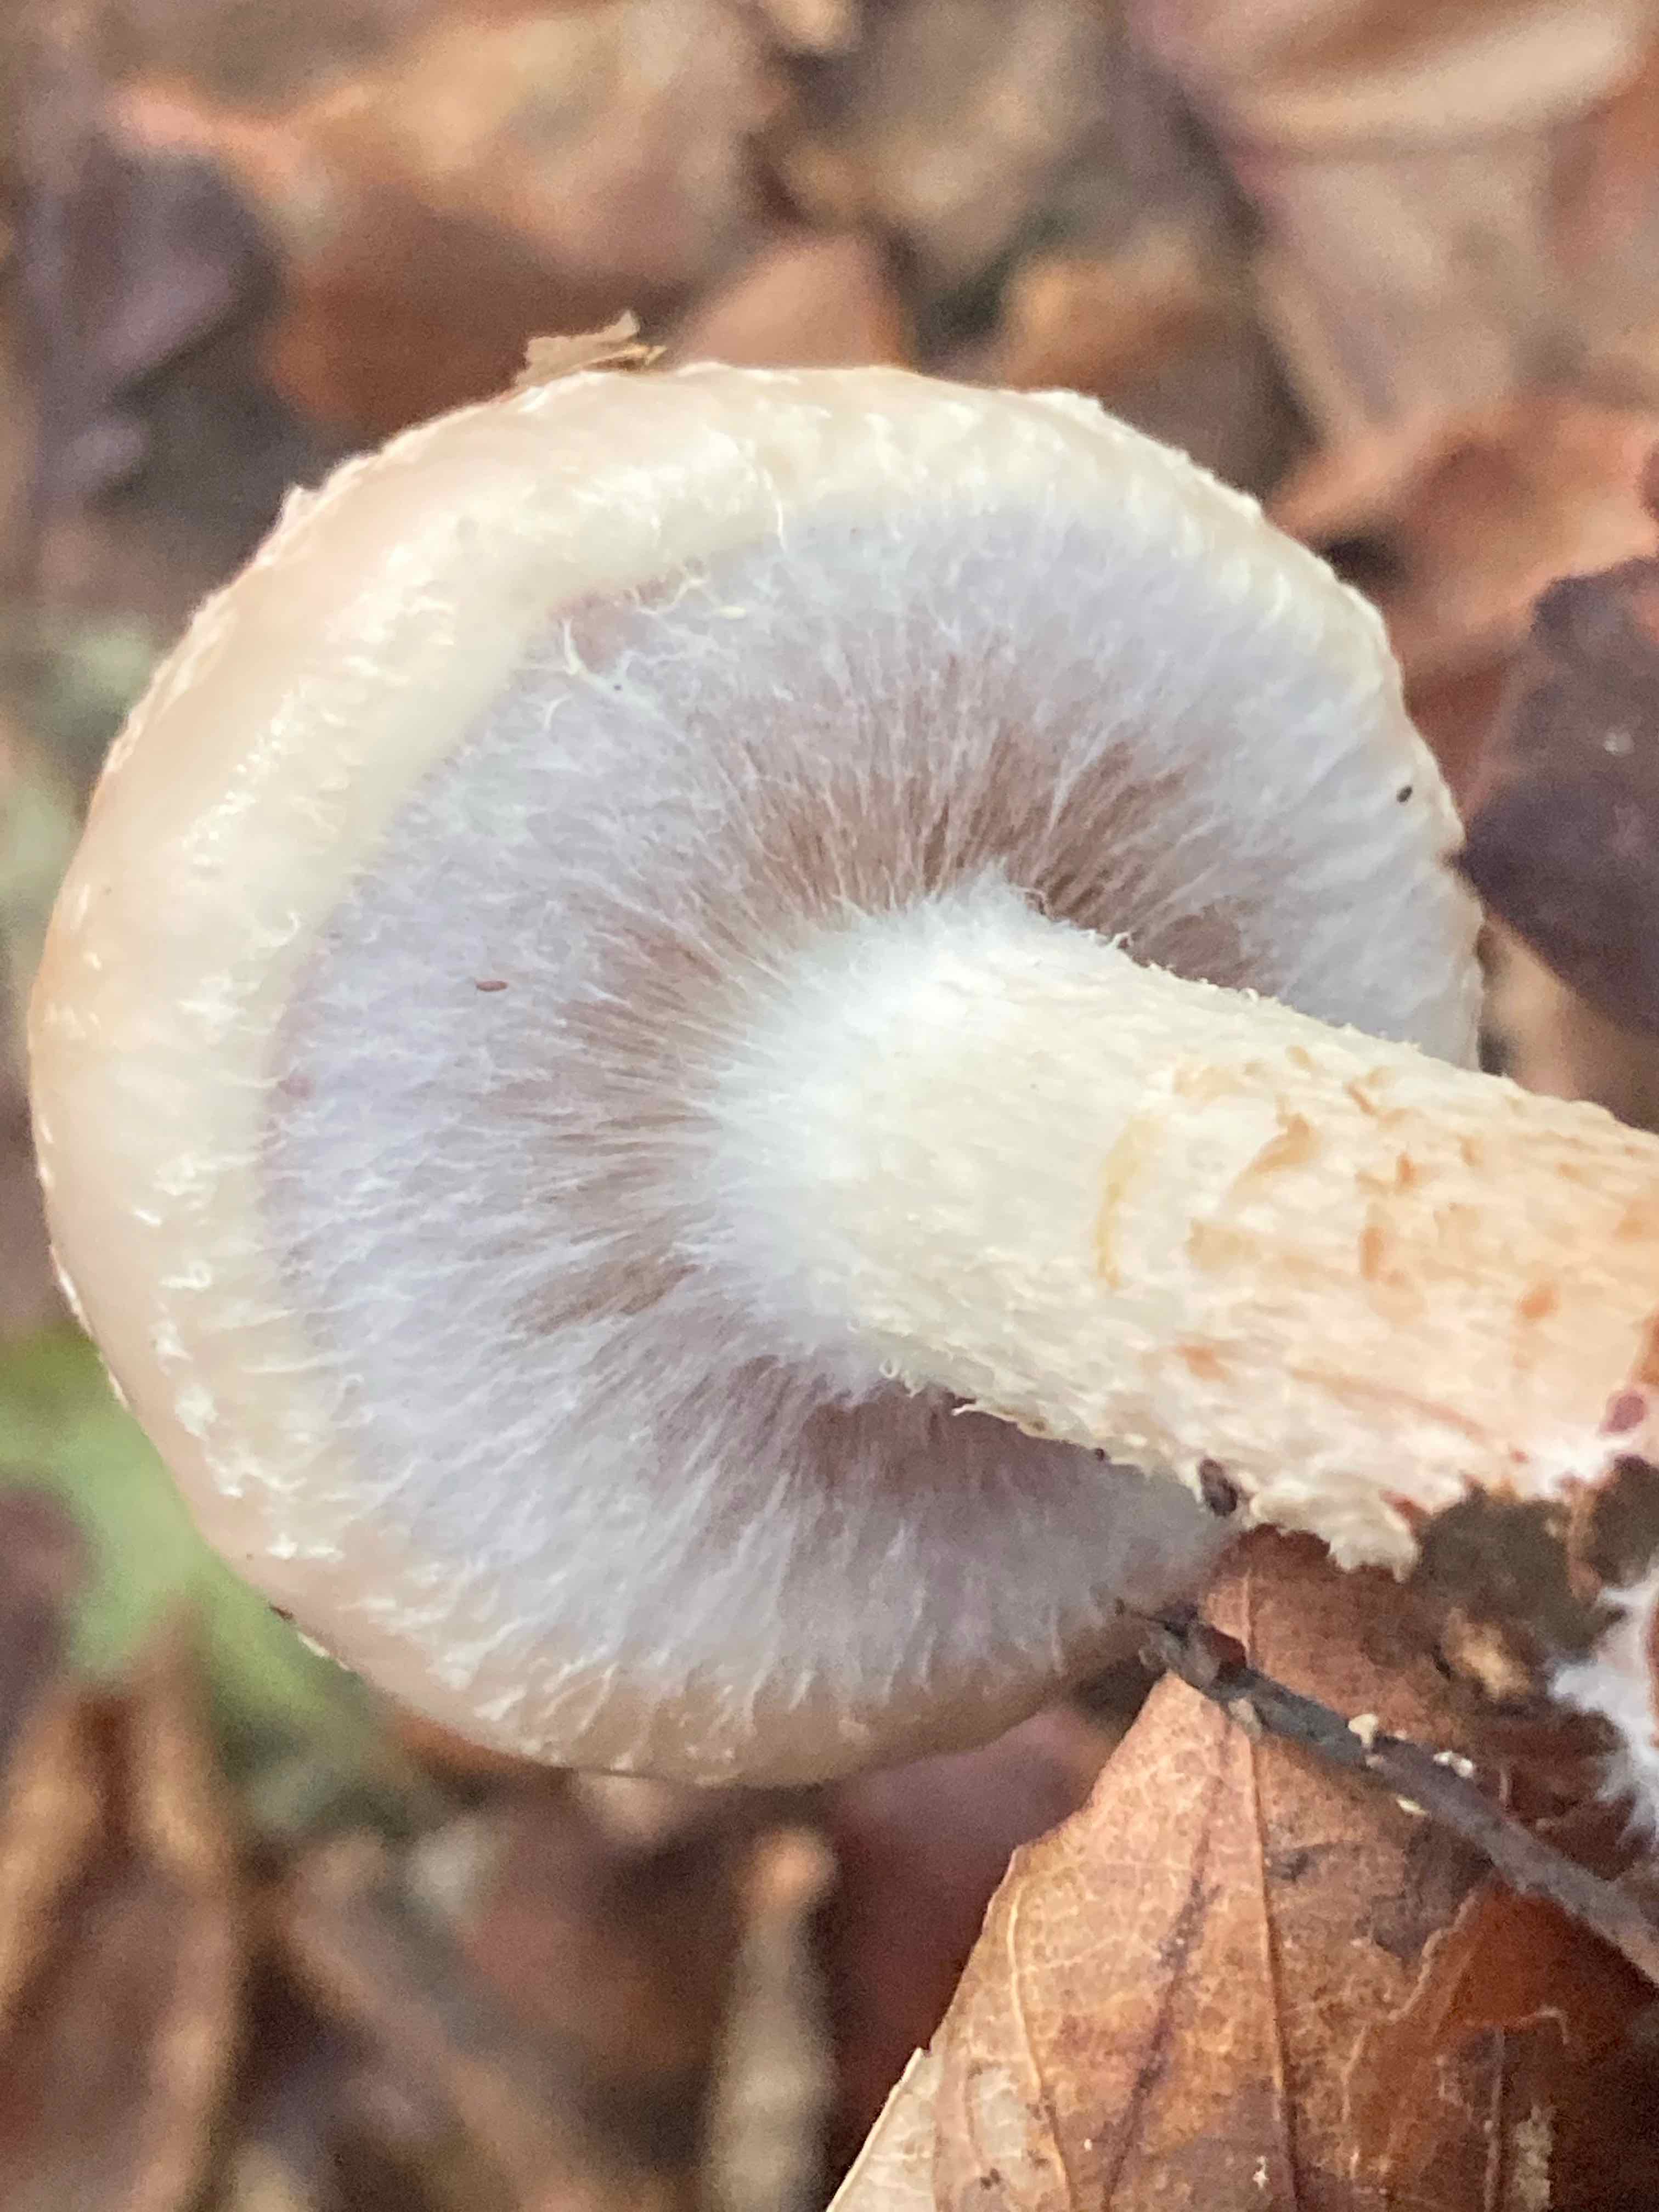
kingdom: Fungi
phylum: Basidiomycota
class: Agaricomycetes
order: Agaricales
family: Strophariaceae
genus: Pholiota
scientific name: Pholiota lenta
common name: løv-skælhat
